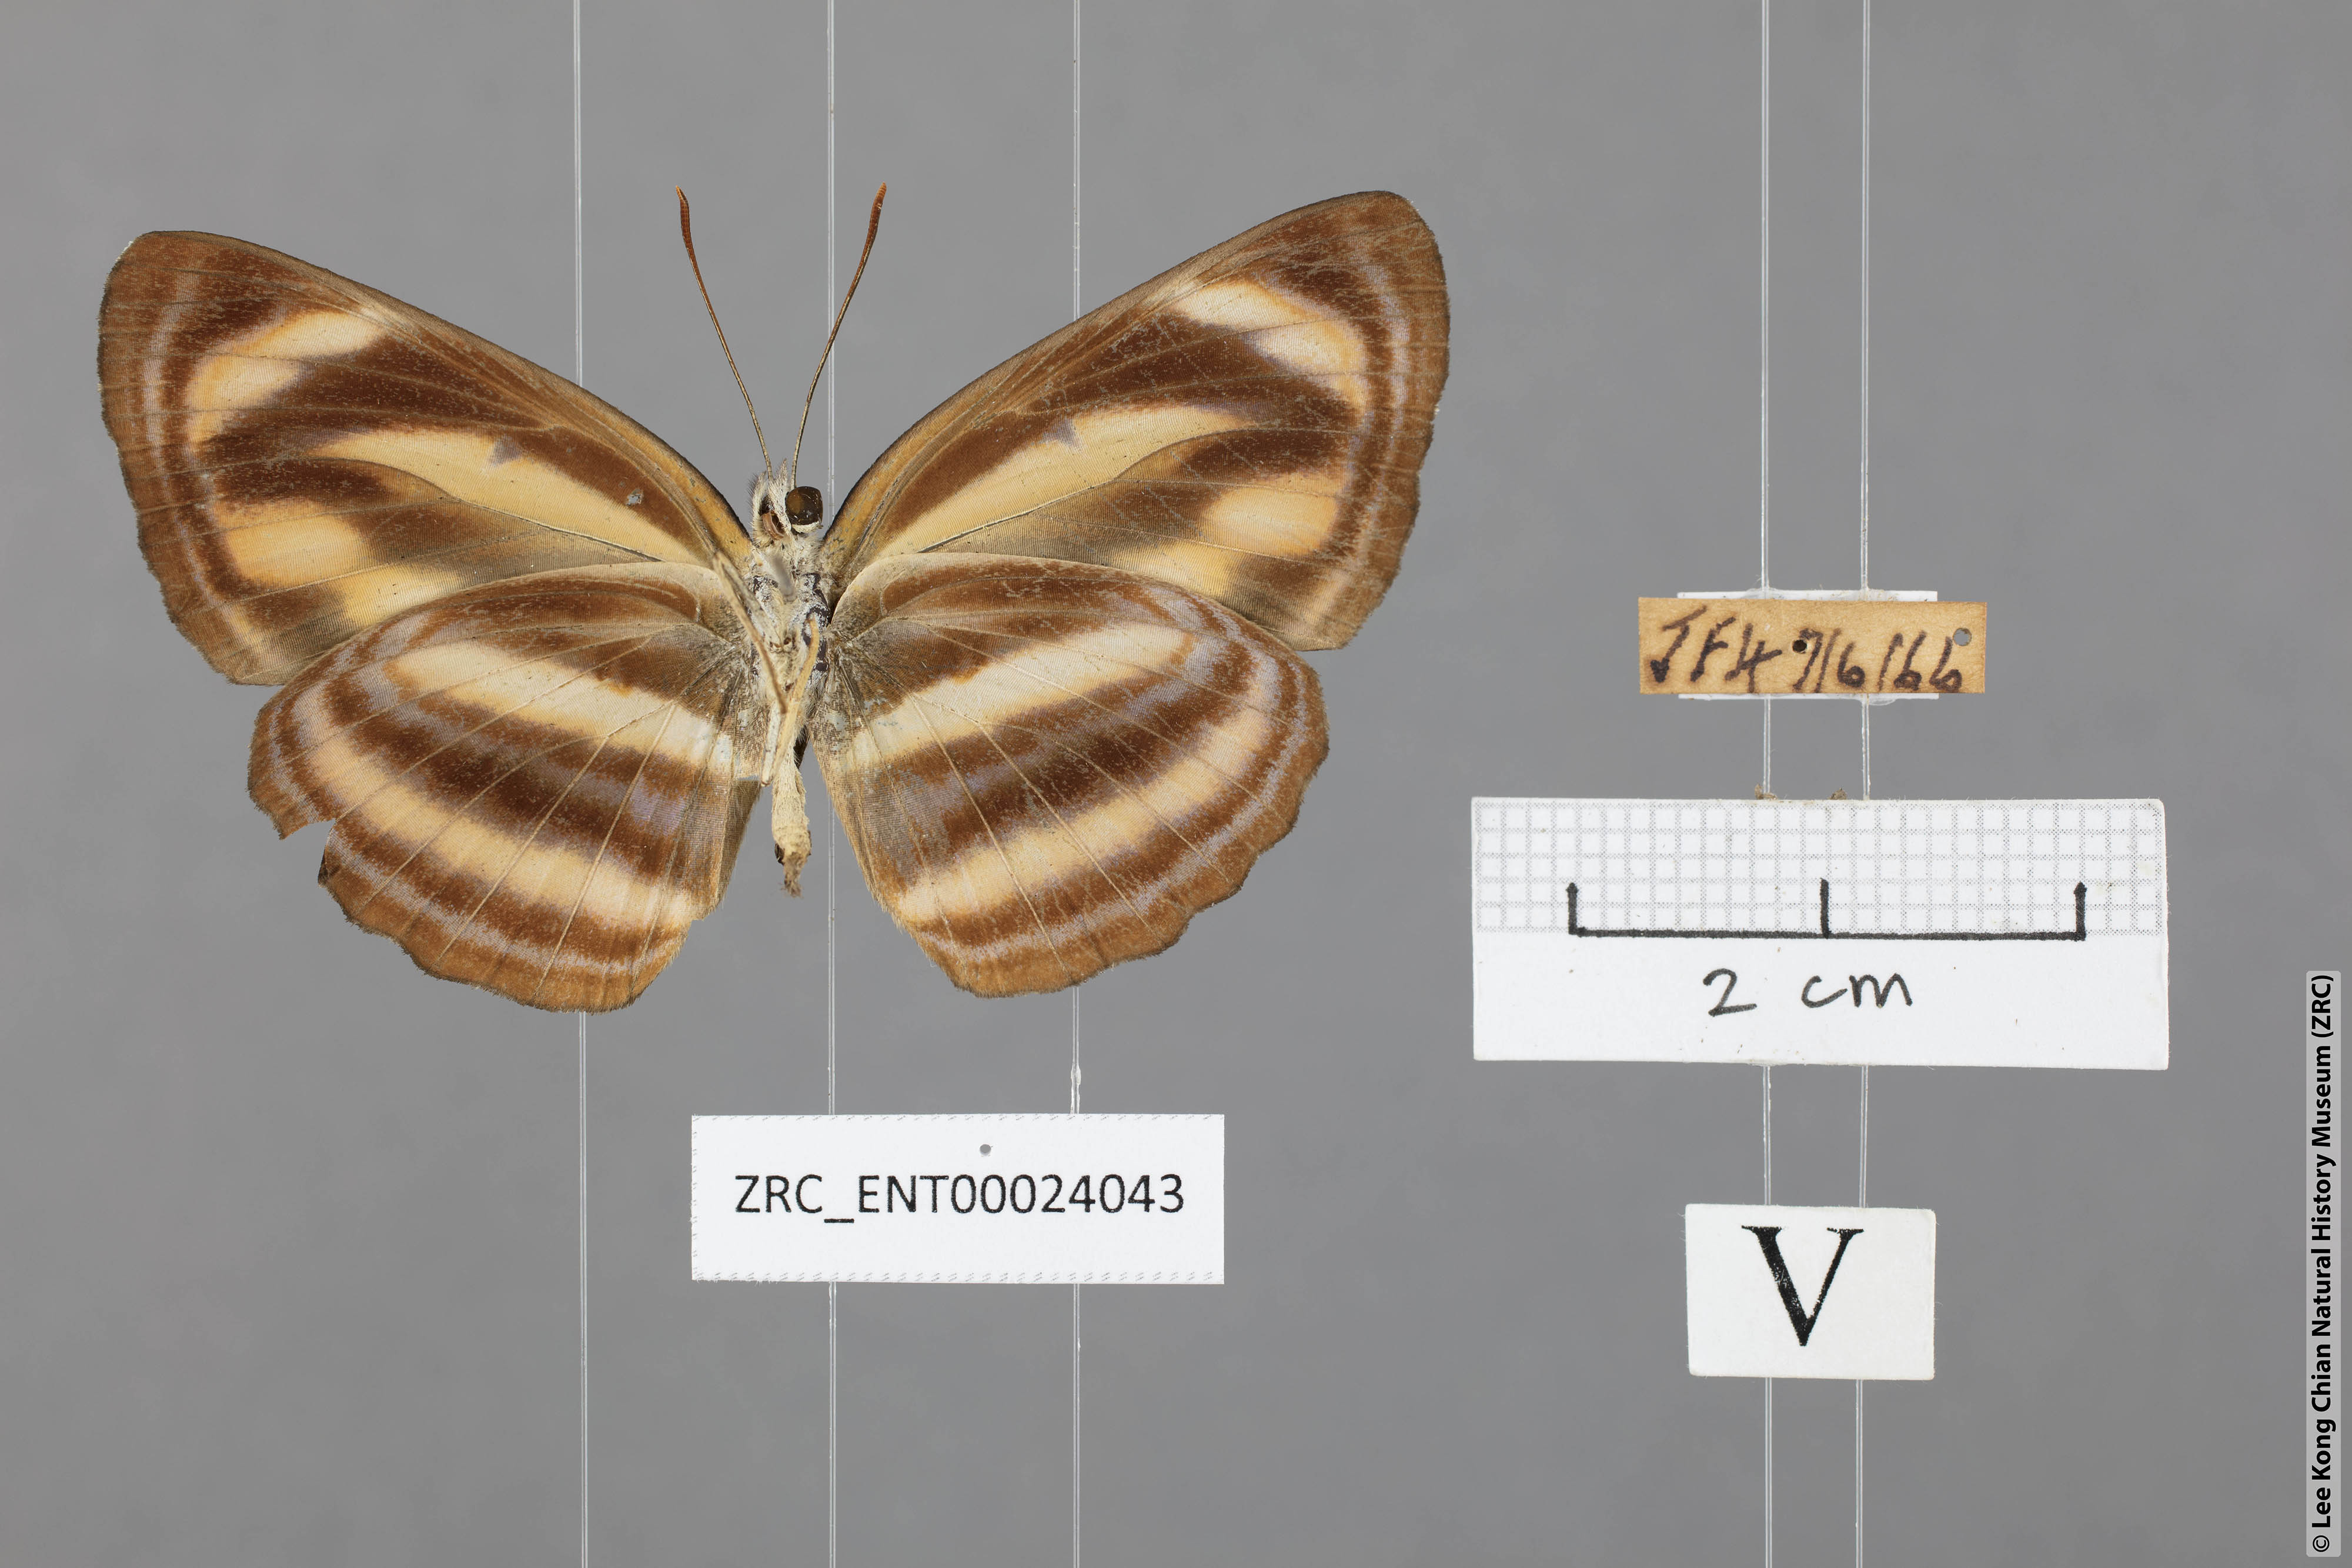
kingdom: Animalia
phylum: Arthropoda
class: Insecta
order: Lepidoptera
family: Nymphalidae
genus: Neptis
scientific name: Neptis miah
